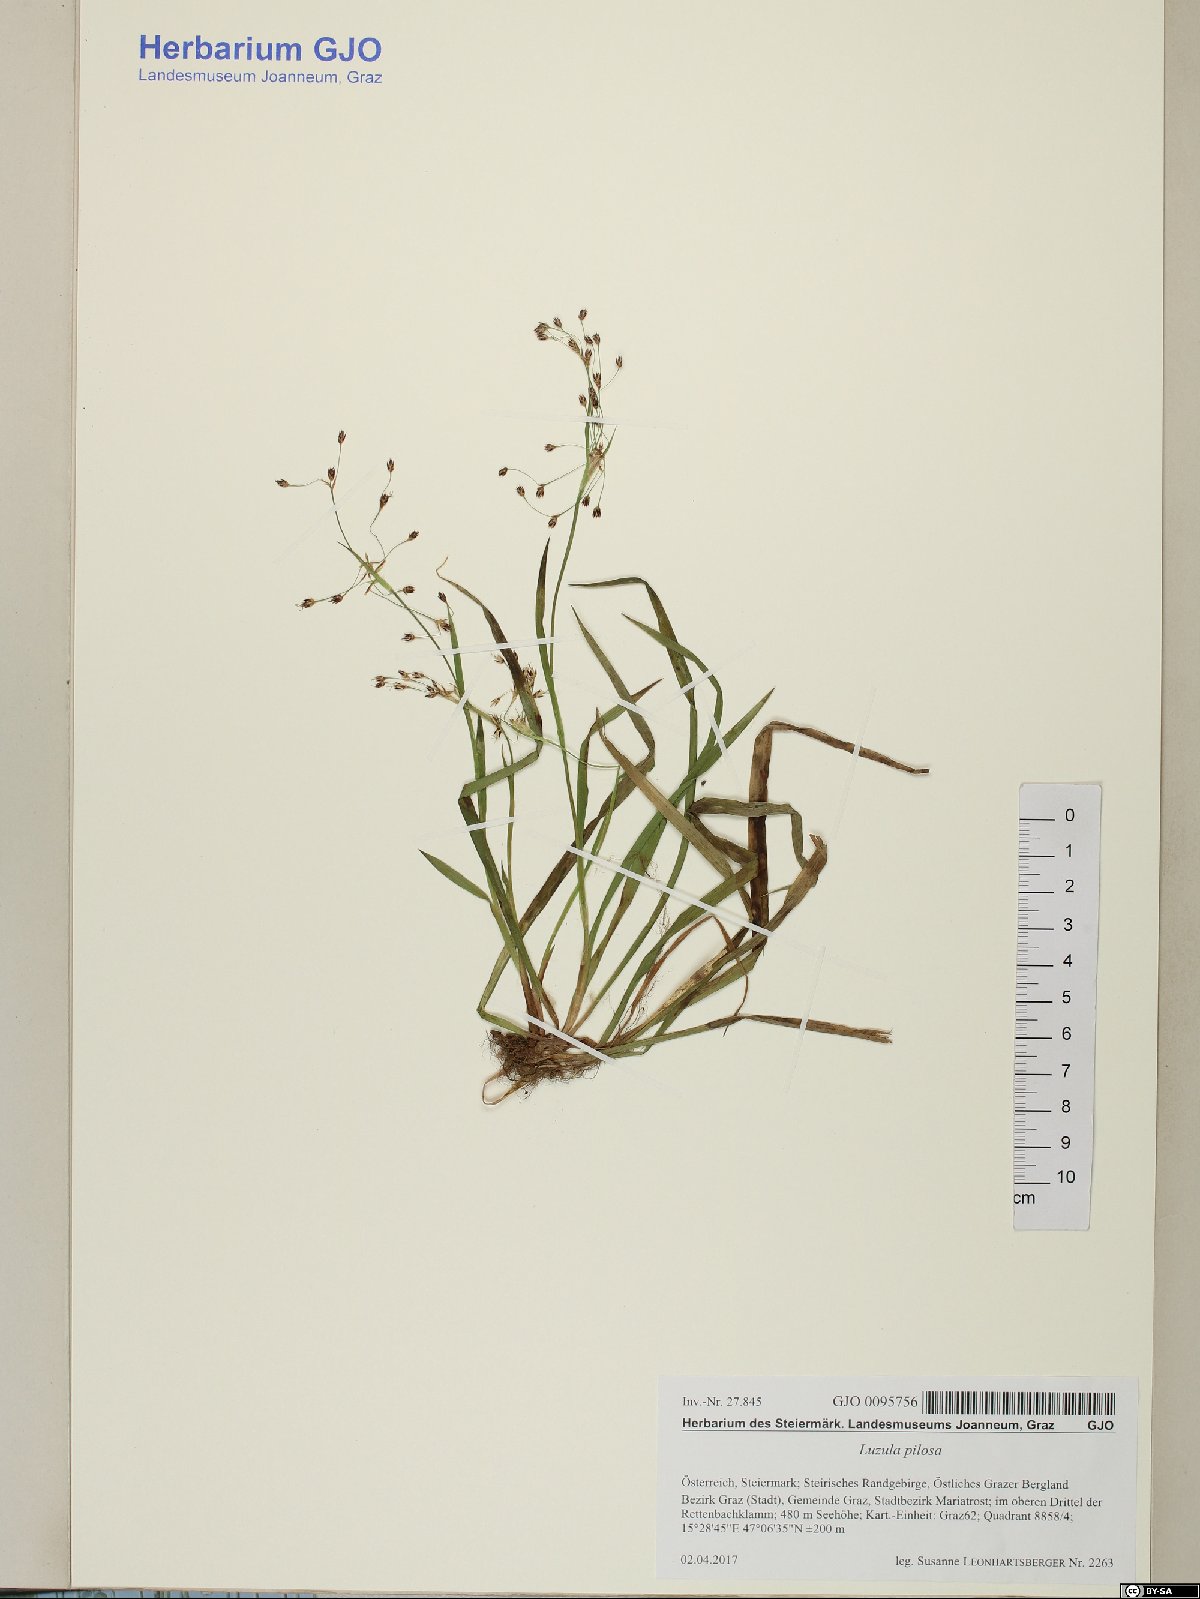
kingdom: Plantae
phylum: Tracheophyta
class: Liliopsida
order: Poales
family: Juncaceae
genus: Luzula
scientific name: Luzula pilosa
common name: Hairy wood-rush
